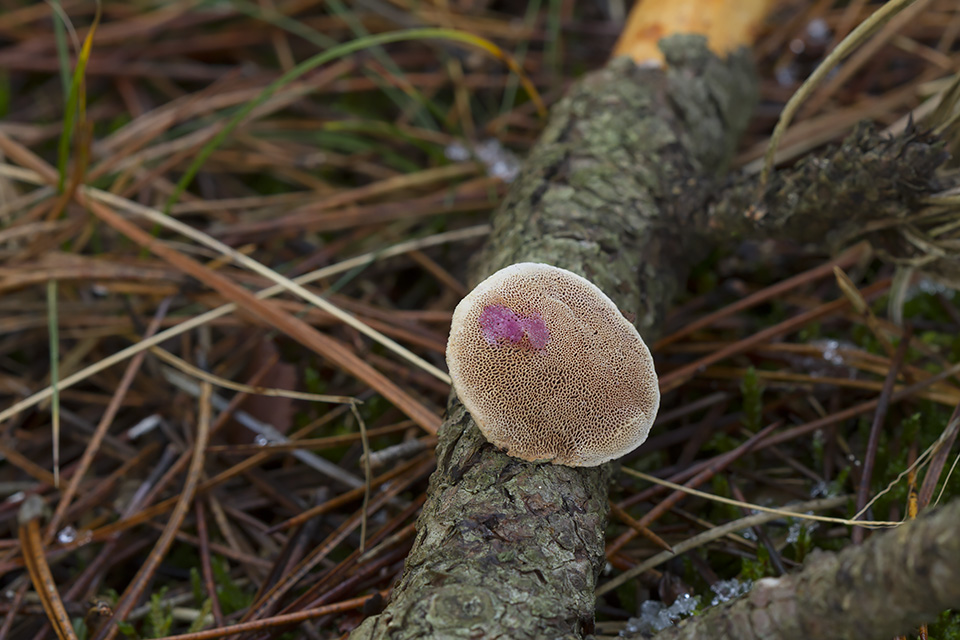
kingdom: Fungi
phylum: Basidiomycota
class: Agaricomycetes
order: Polyporales
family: Phanerochaetaceae
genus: Hapalopilus
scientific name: Hapalopilus rutilans
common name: rødlig okkerporesvamp
